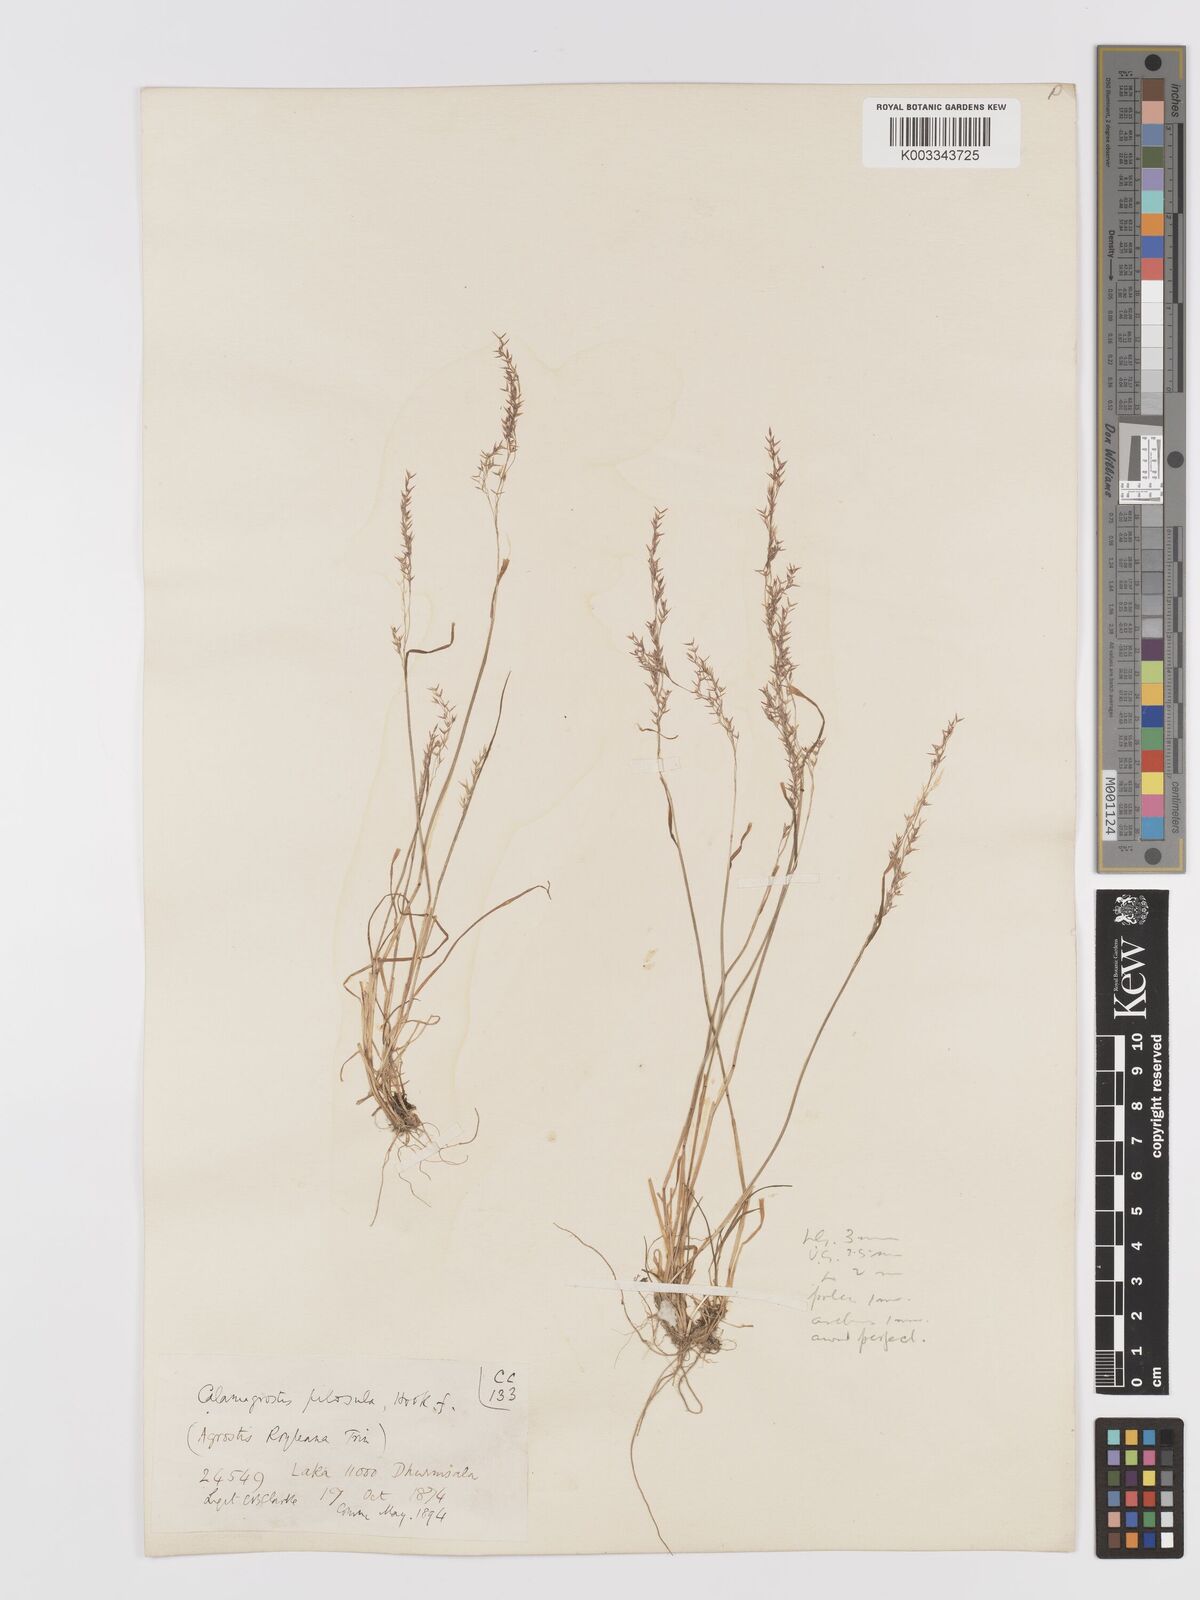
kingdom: Plantae
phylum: Tracheophyta
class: Liliopsida
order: Poales
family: Poaceae
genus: Agrostis
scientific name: Agrostis pilosula
